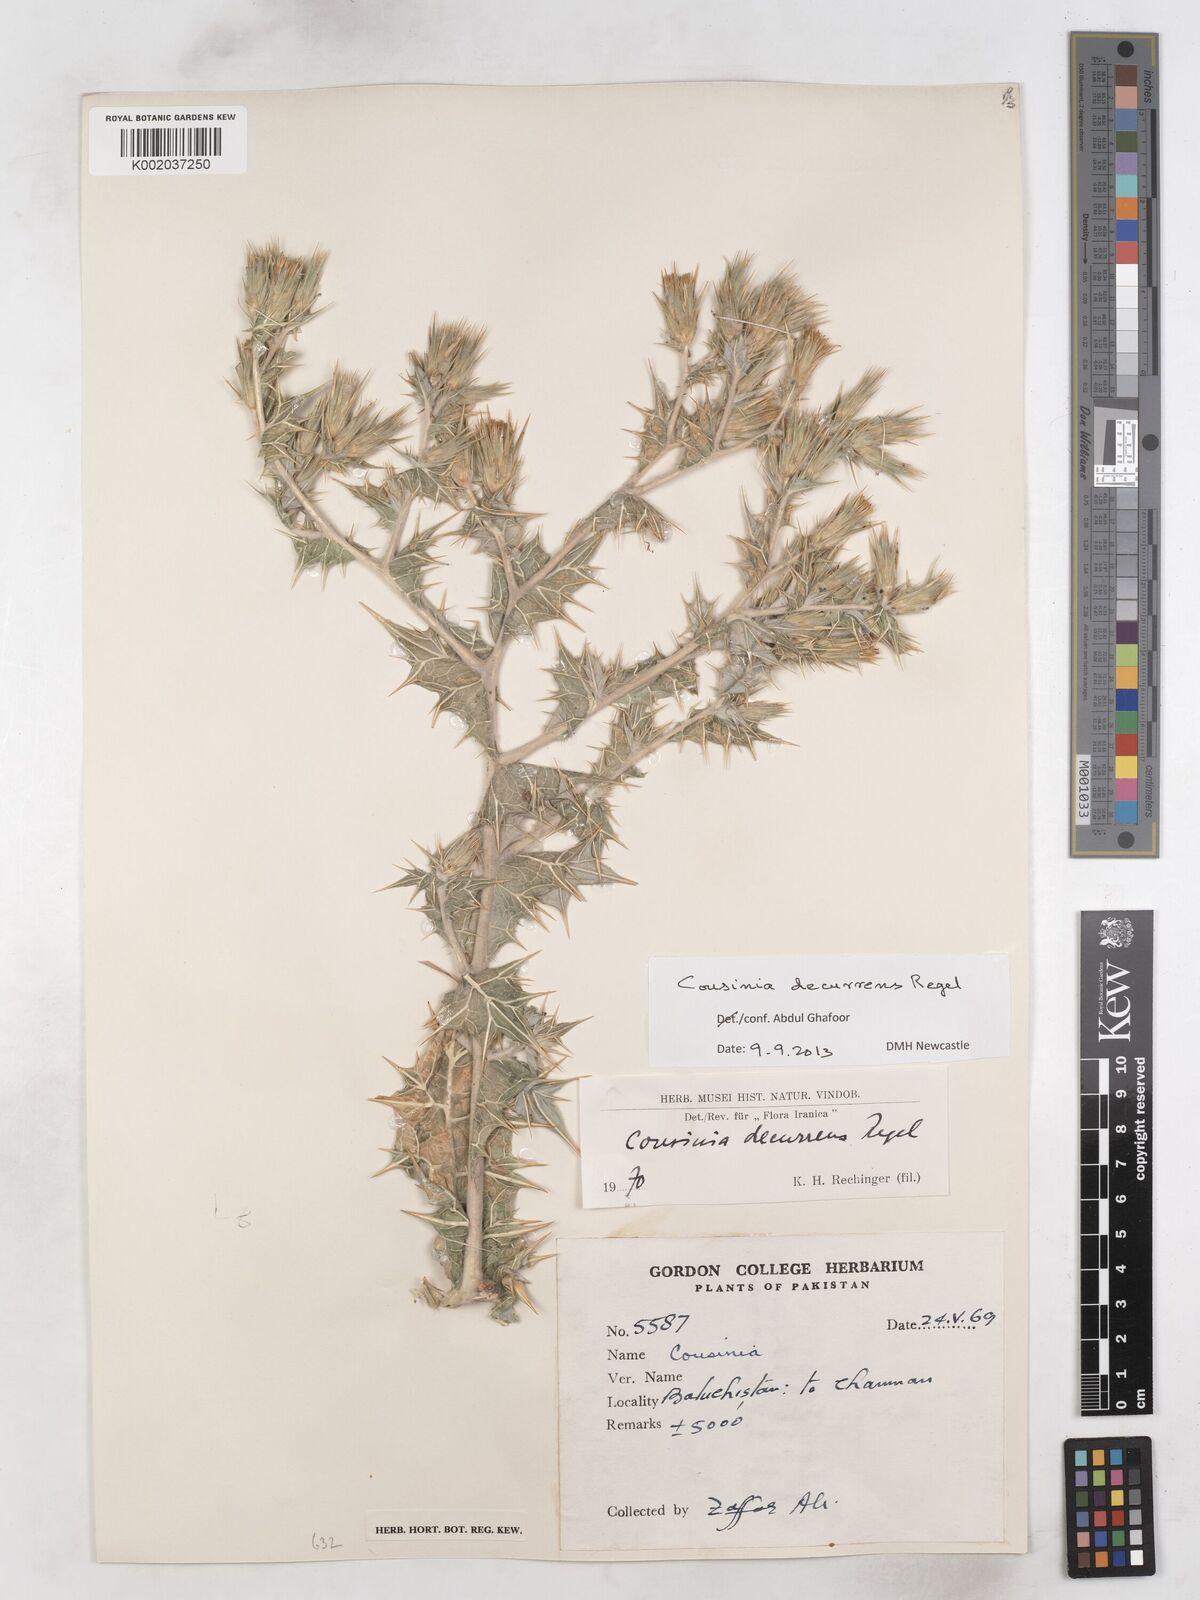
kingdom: Plantae
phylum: Tracheophyta
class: Magnoliopsida
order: Asterales
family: Asteraceae
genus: Cousinia
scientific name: Cousinia decurrens
